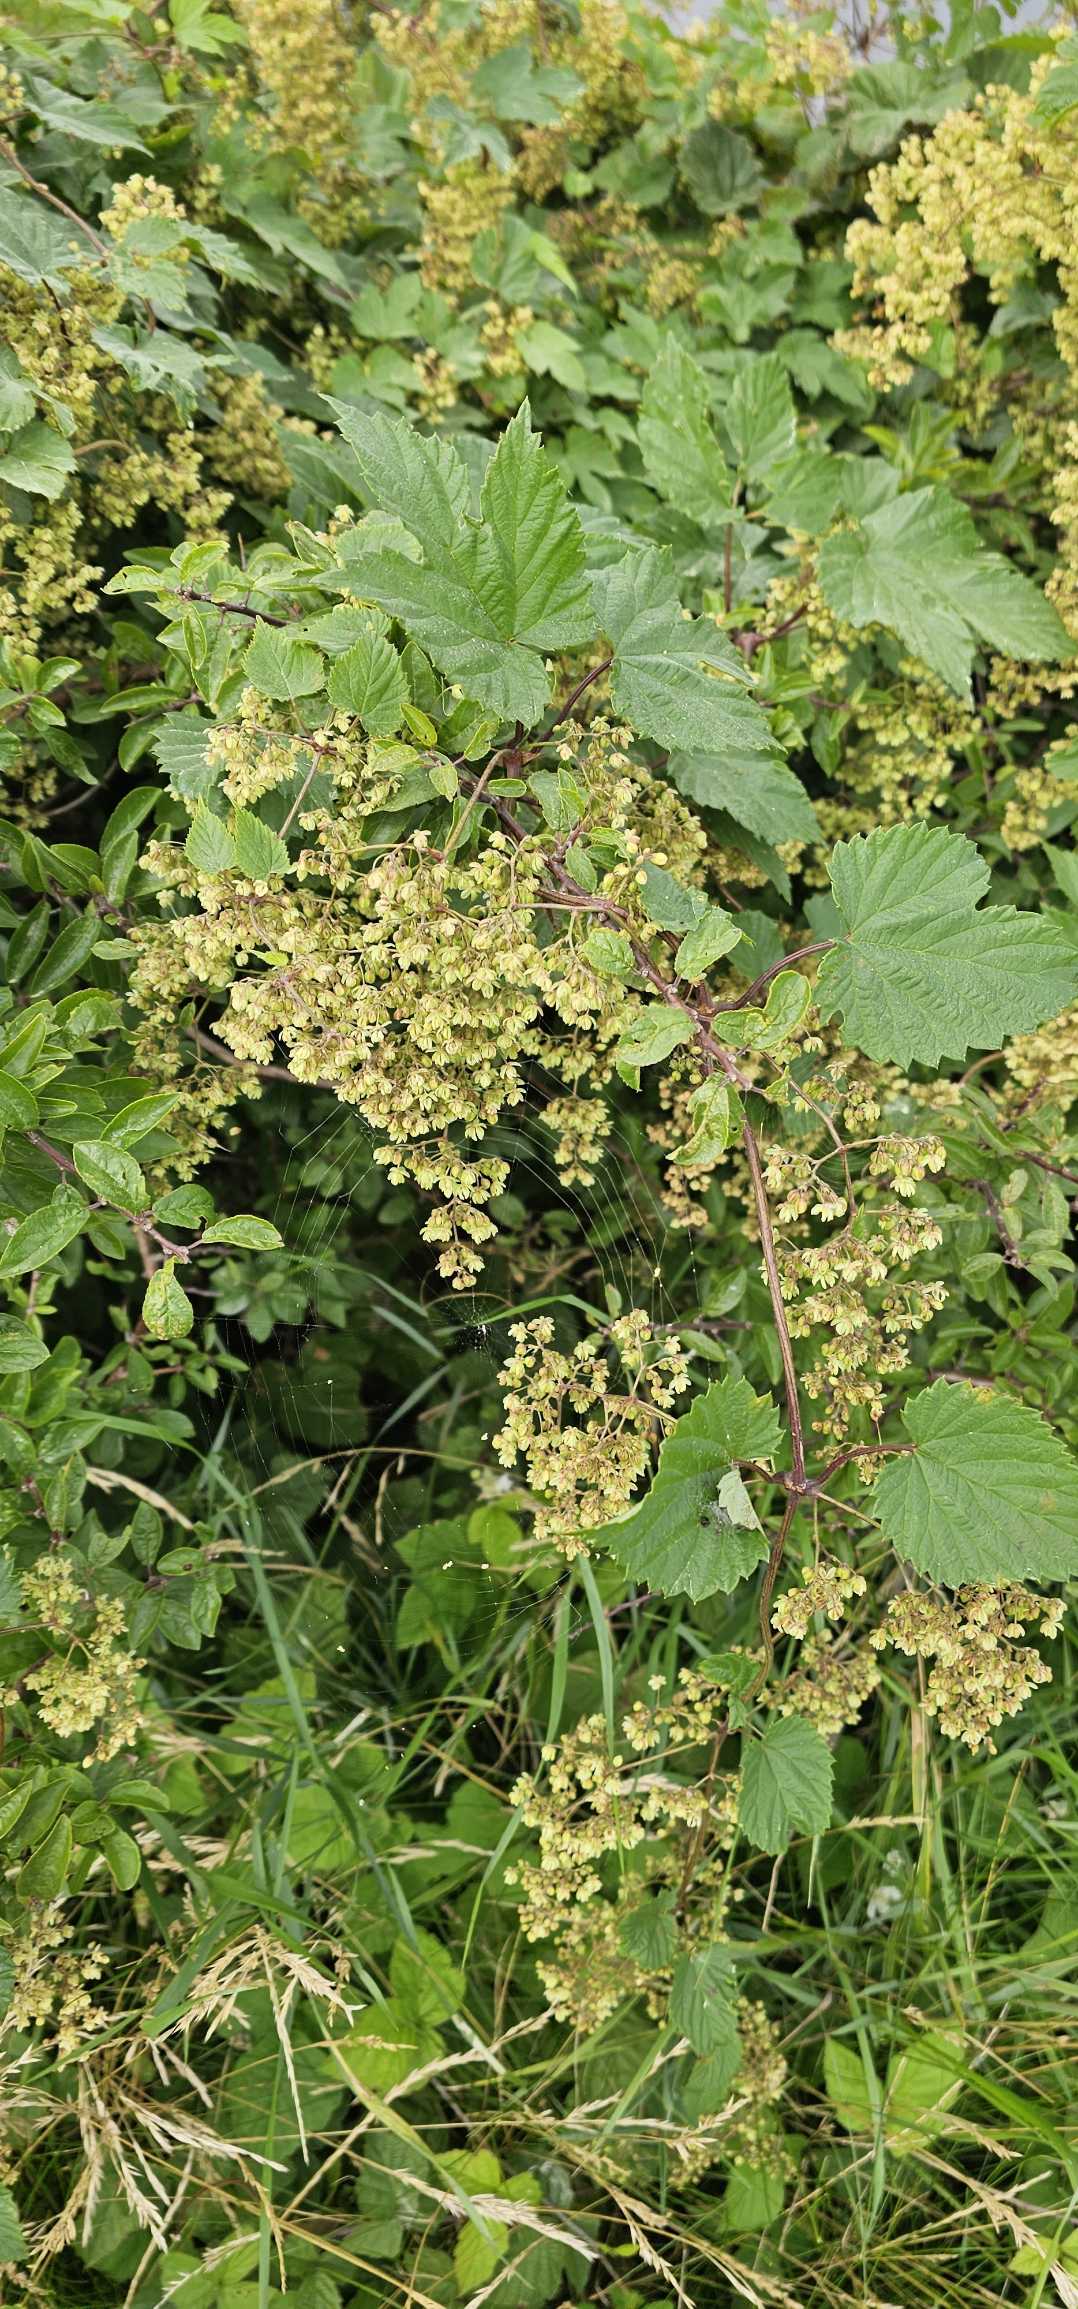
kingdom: Plantae
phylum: Tracheophyta
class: Magnoliopsida
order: Rosales
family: Cannabaceae
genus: Humulus
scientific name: Humulus lupulus
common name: Humle
